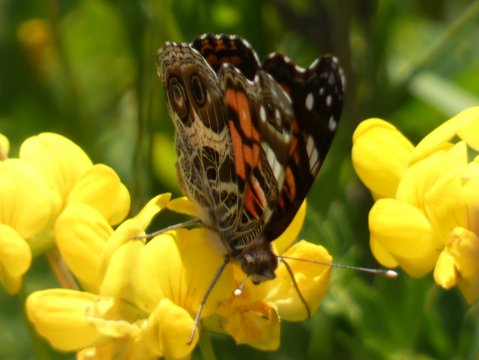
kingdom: Animalia
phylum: Arthropoda
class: Insecta
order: Lepidoptera
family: Nymphalidae
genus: Vanessa
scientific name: Vanessa virginiensis
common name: American Lady
